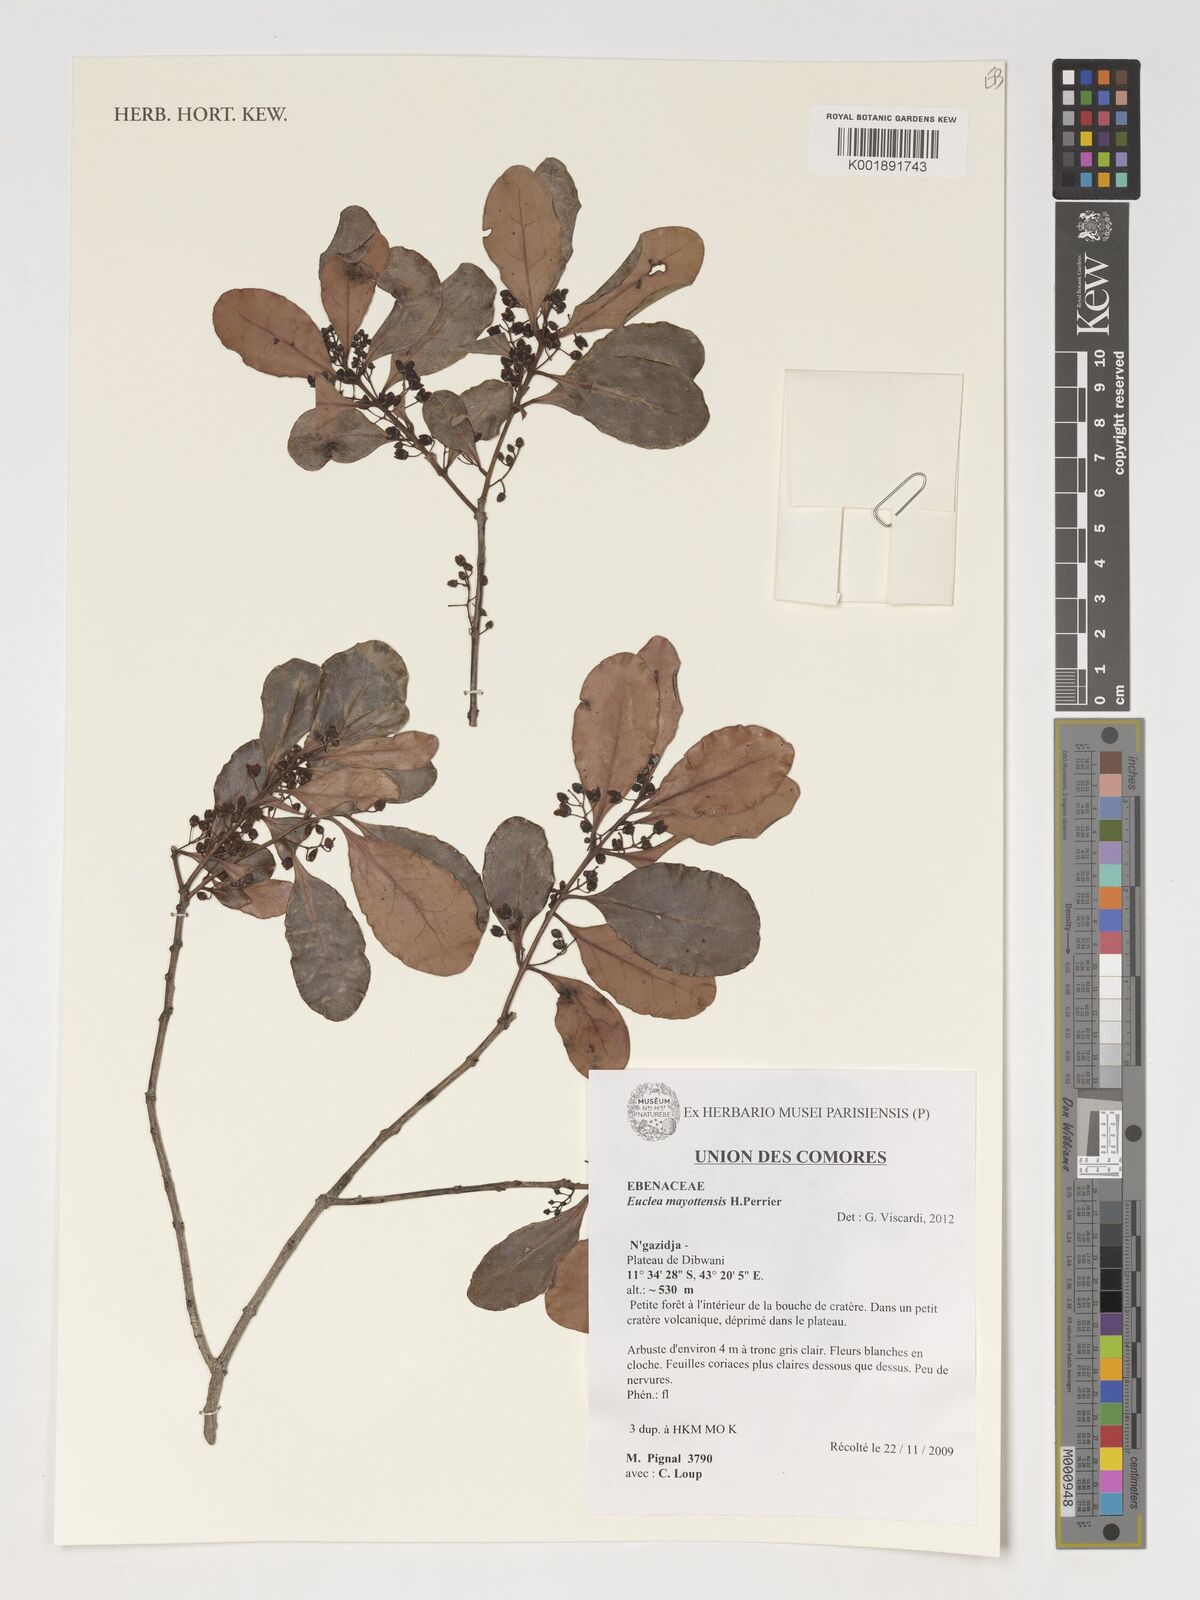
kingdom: Plantae
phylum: Tracheophyta
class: Magnoliopsida
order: Ericales
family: Ebenaceae
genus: Euclea
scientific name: Euclea racemosa
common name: Dune guarri
